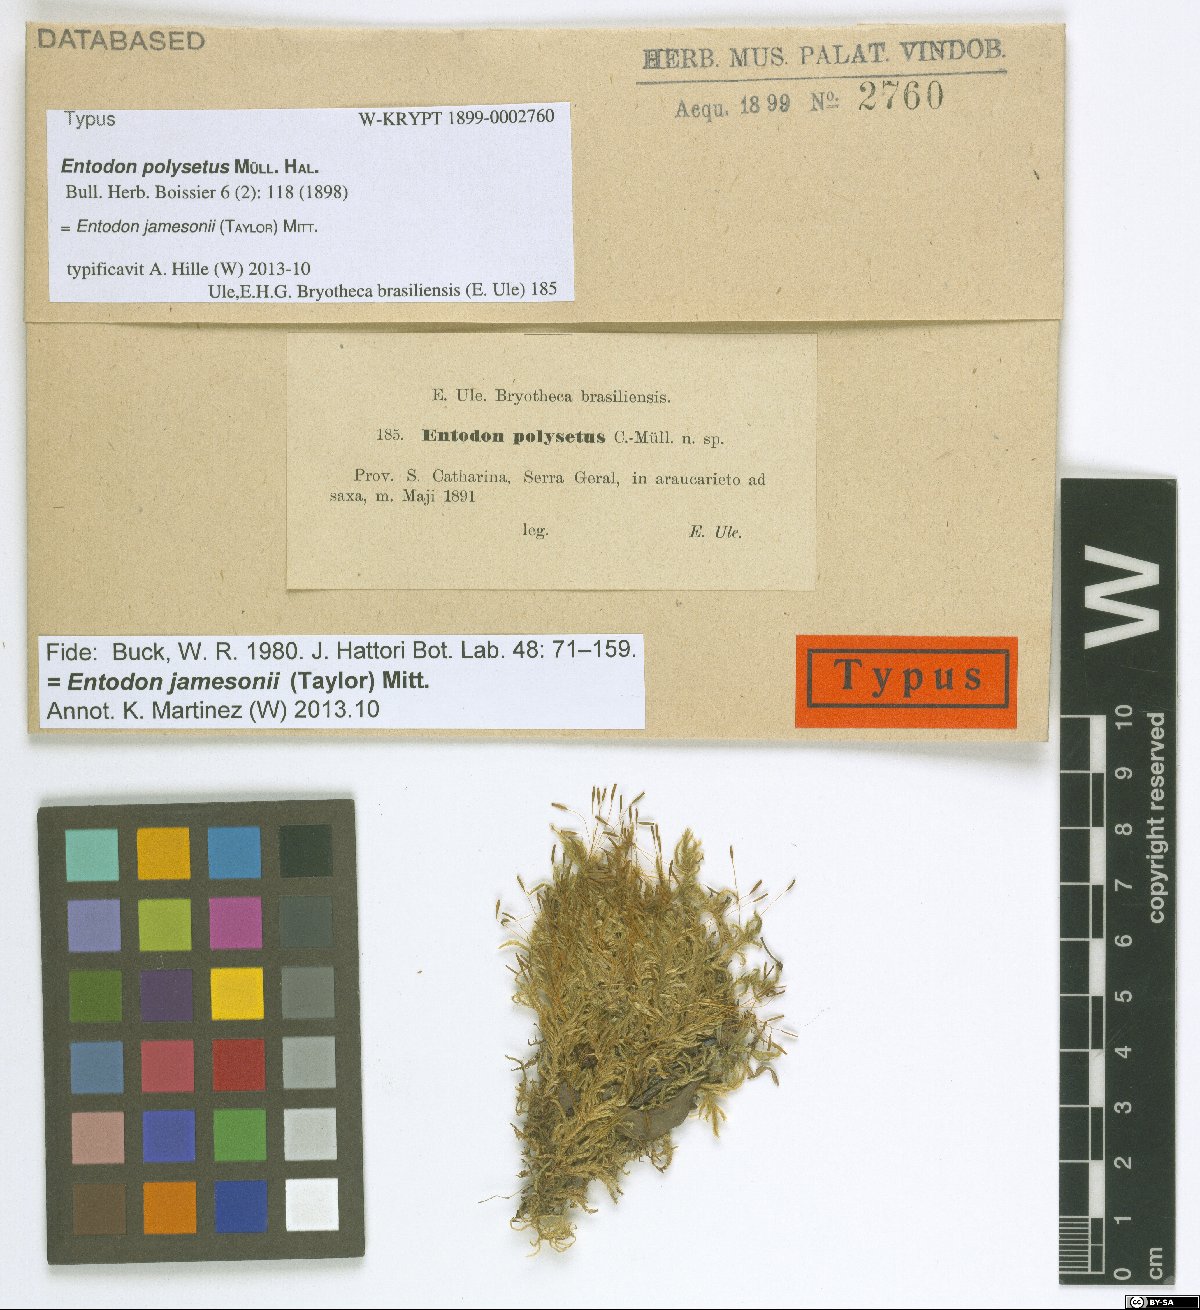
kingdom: Plantae
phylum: Bryophyta
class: Bryopsida
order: Hypnales
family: Entodontaceae
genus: Entodon
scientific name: Entodon jamesonii
